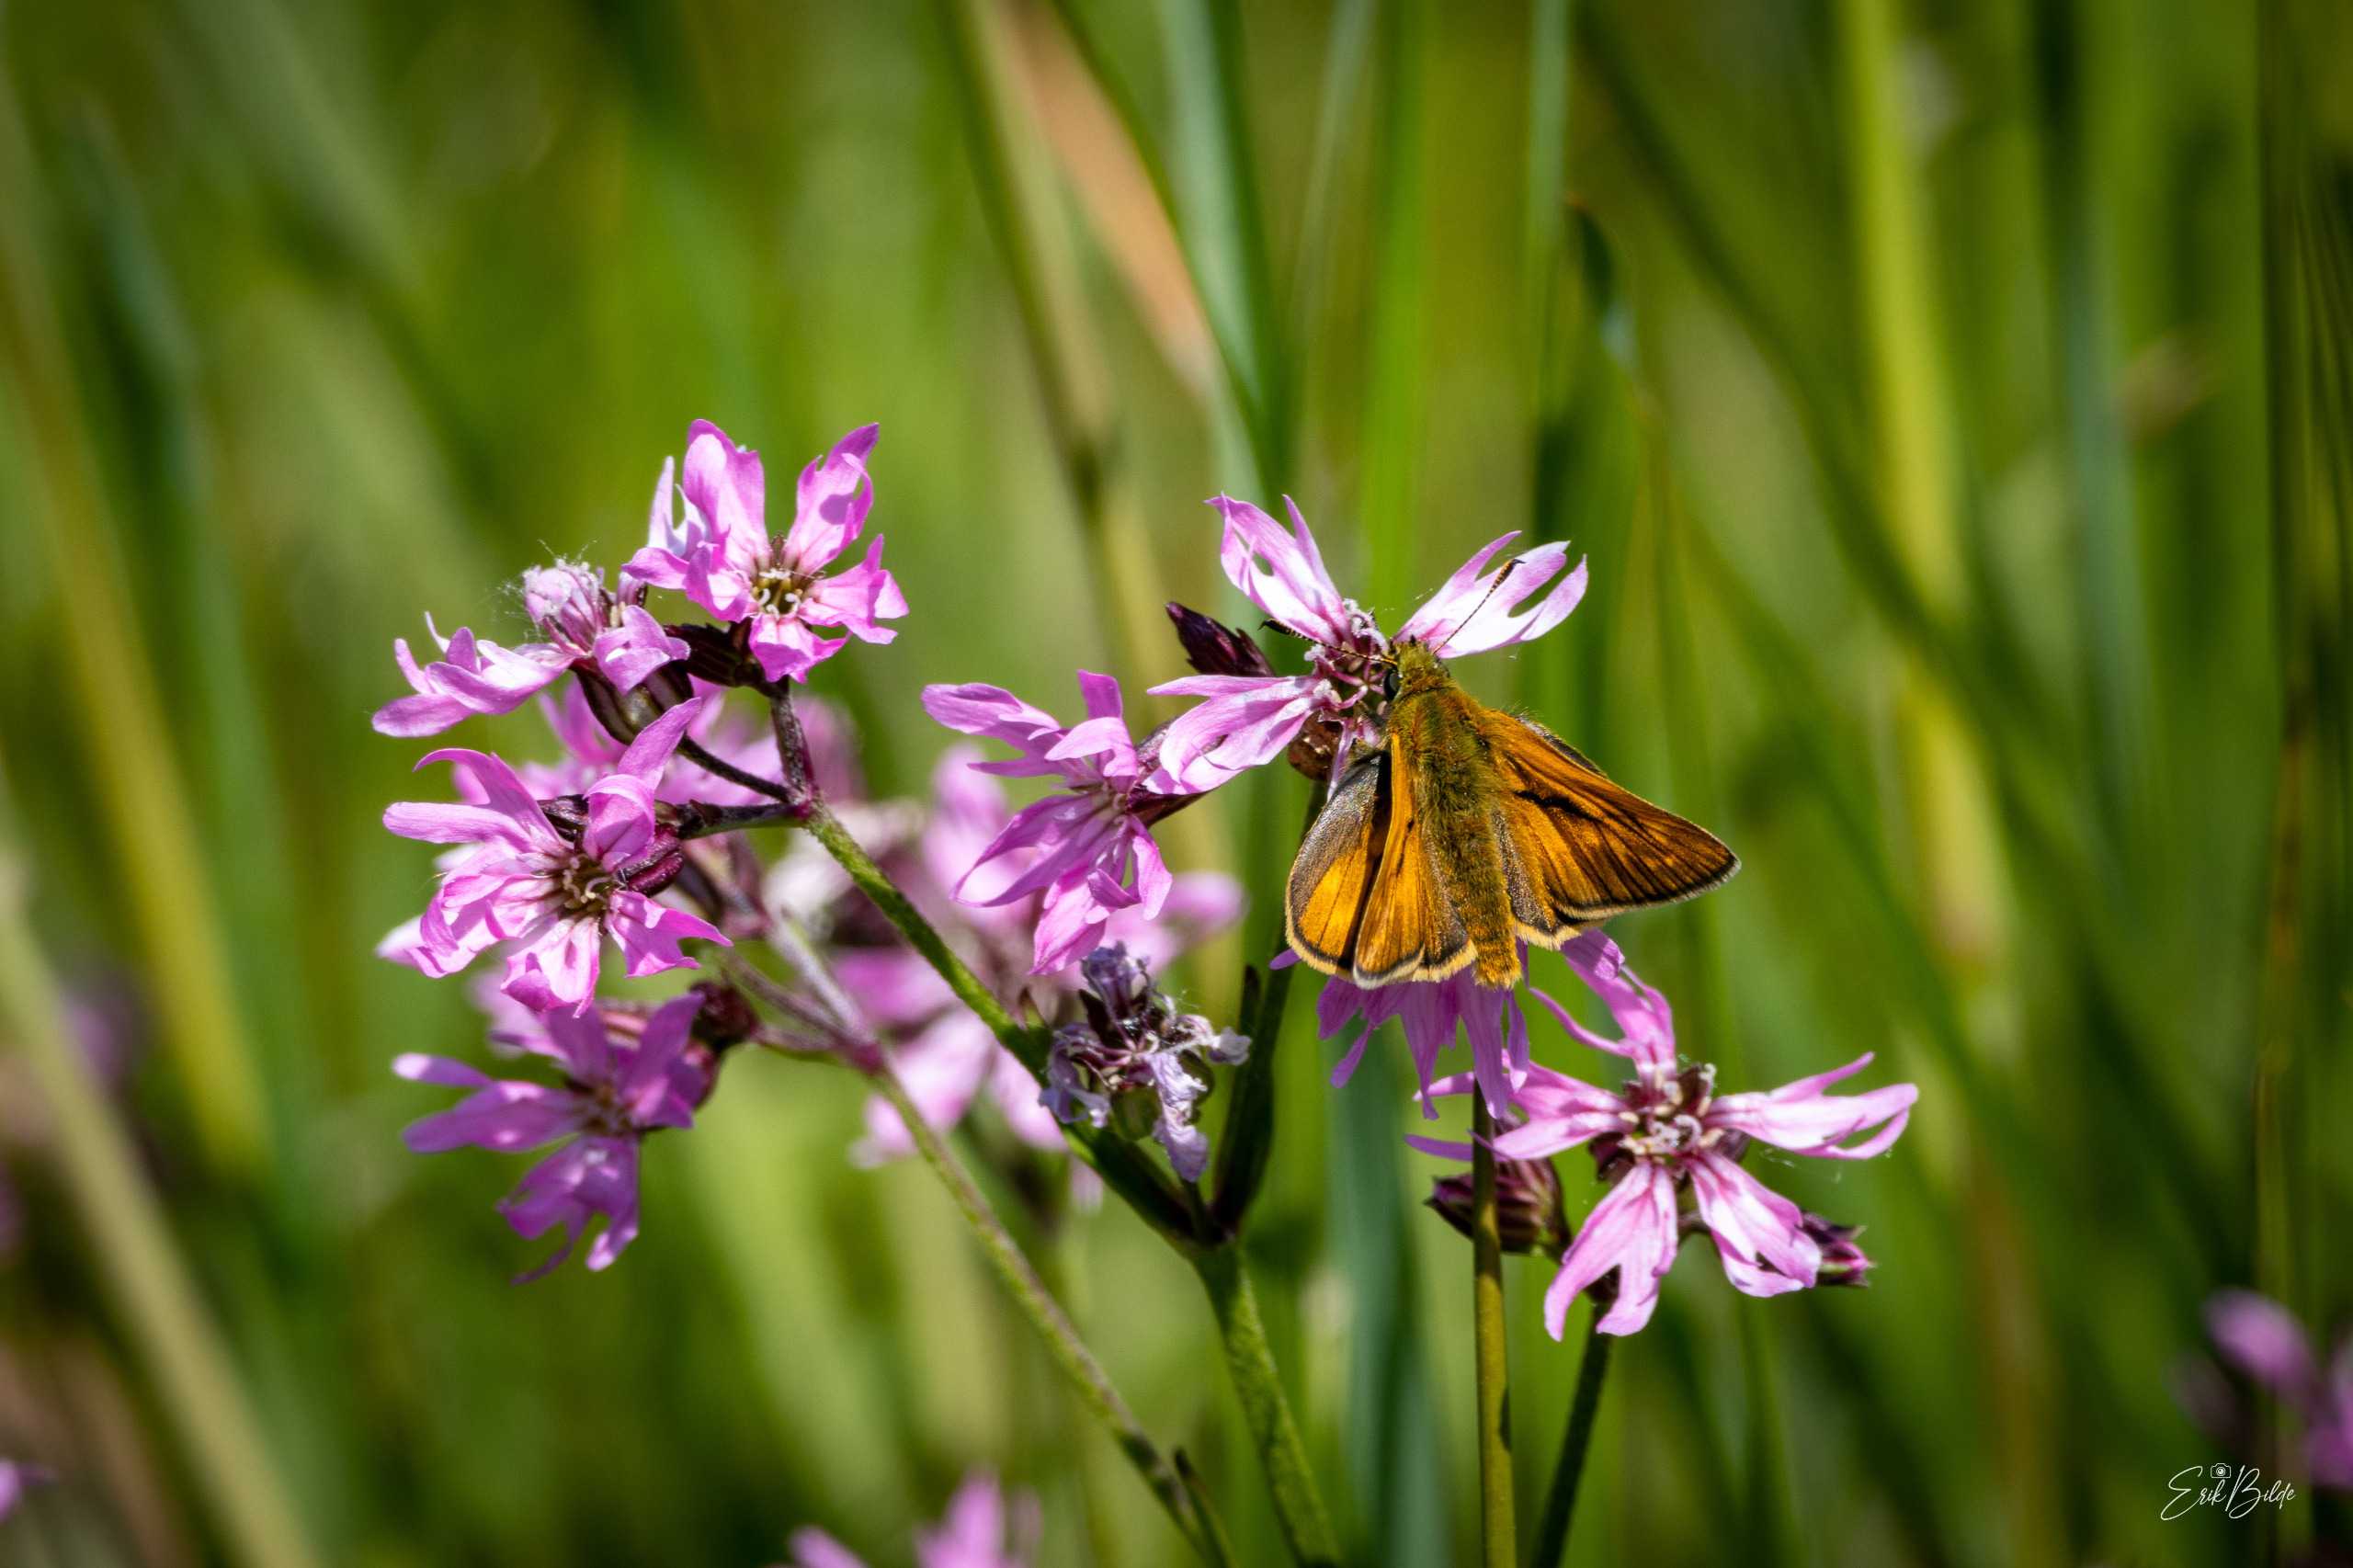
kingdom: Animalia
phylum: Arthropoda
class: Insecta
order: Lepidoptera
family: Hesperiidae
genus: Ochlodes
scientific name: Ochlodes venata
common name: Stor bredpande
